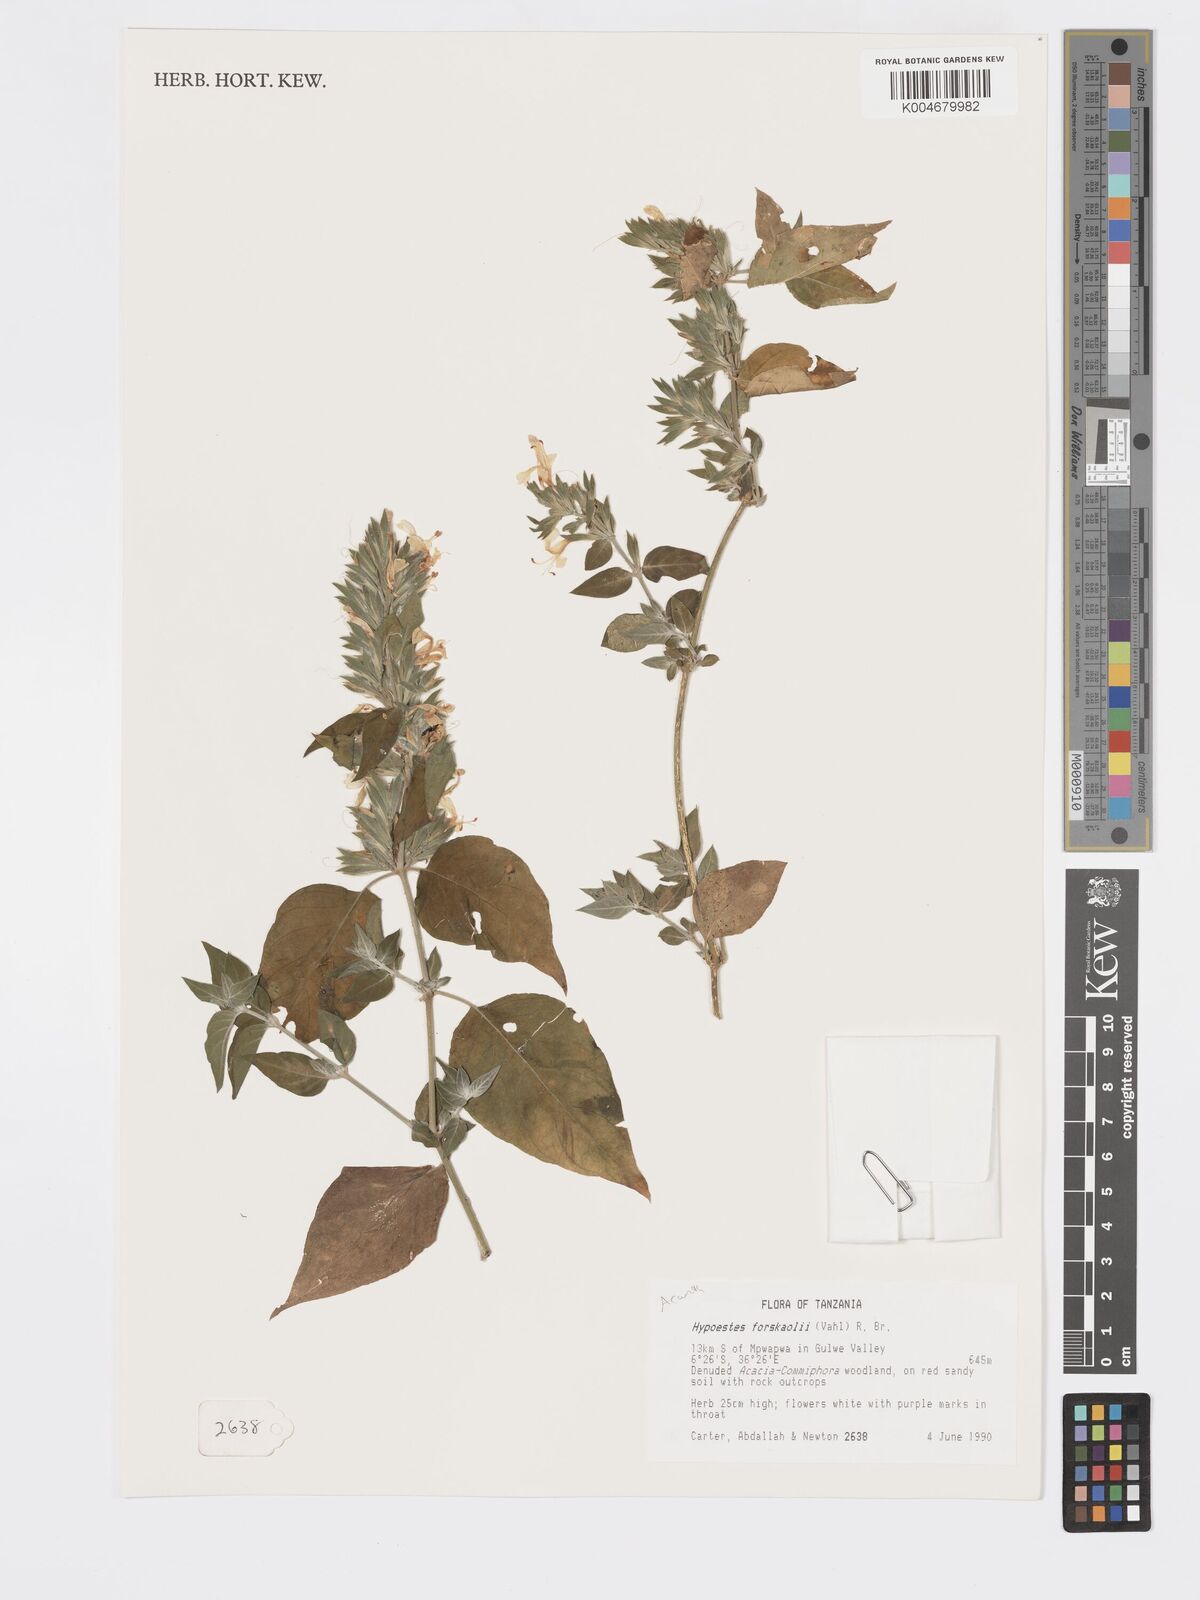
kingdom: Plantae
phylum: Tracheophyta
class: Magnoliopsida
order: Lamiales
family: Acanthaceae
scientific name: Acanthaceae
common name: Acanthaceae
